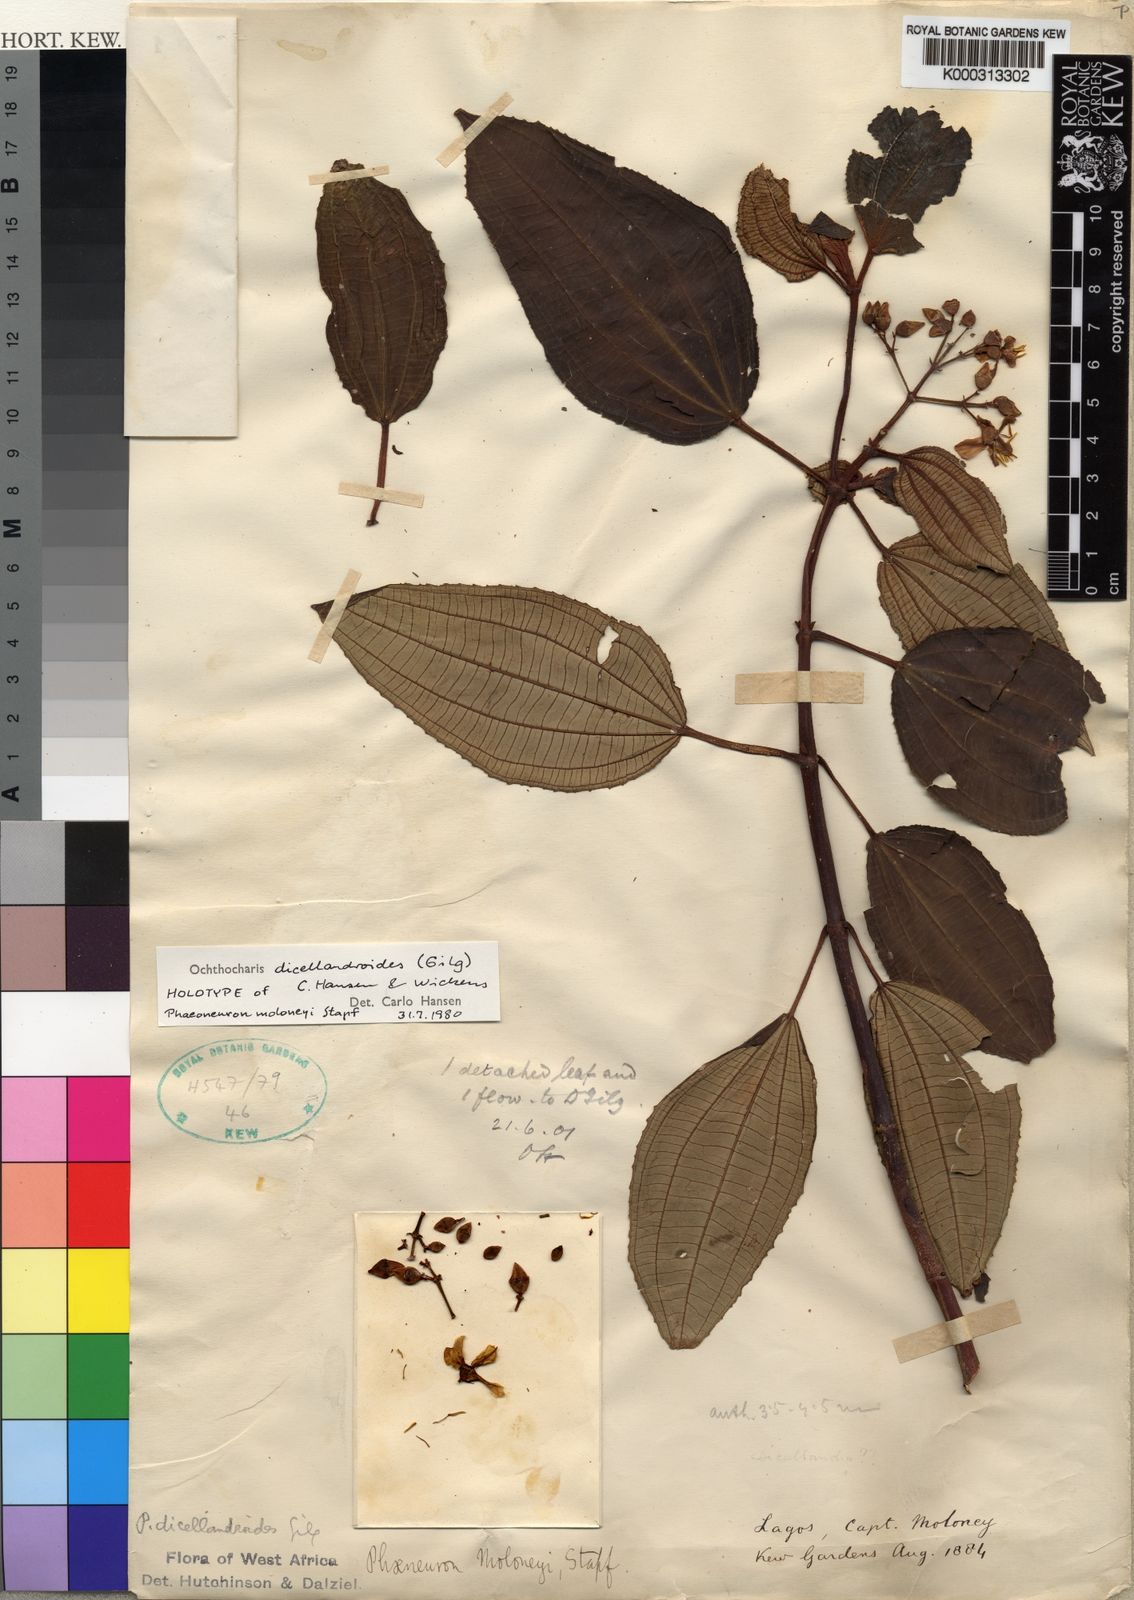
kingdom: Plantae
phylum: Tracheophyta
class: Magnoliopsida
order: Myrtales
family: Melastomataceae
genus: Ochthocharis
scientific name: Ochthocharis dicellandroides
